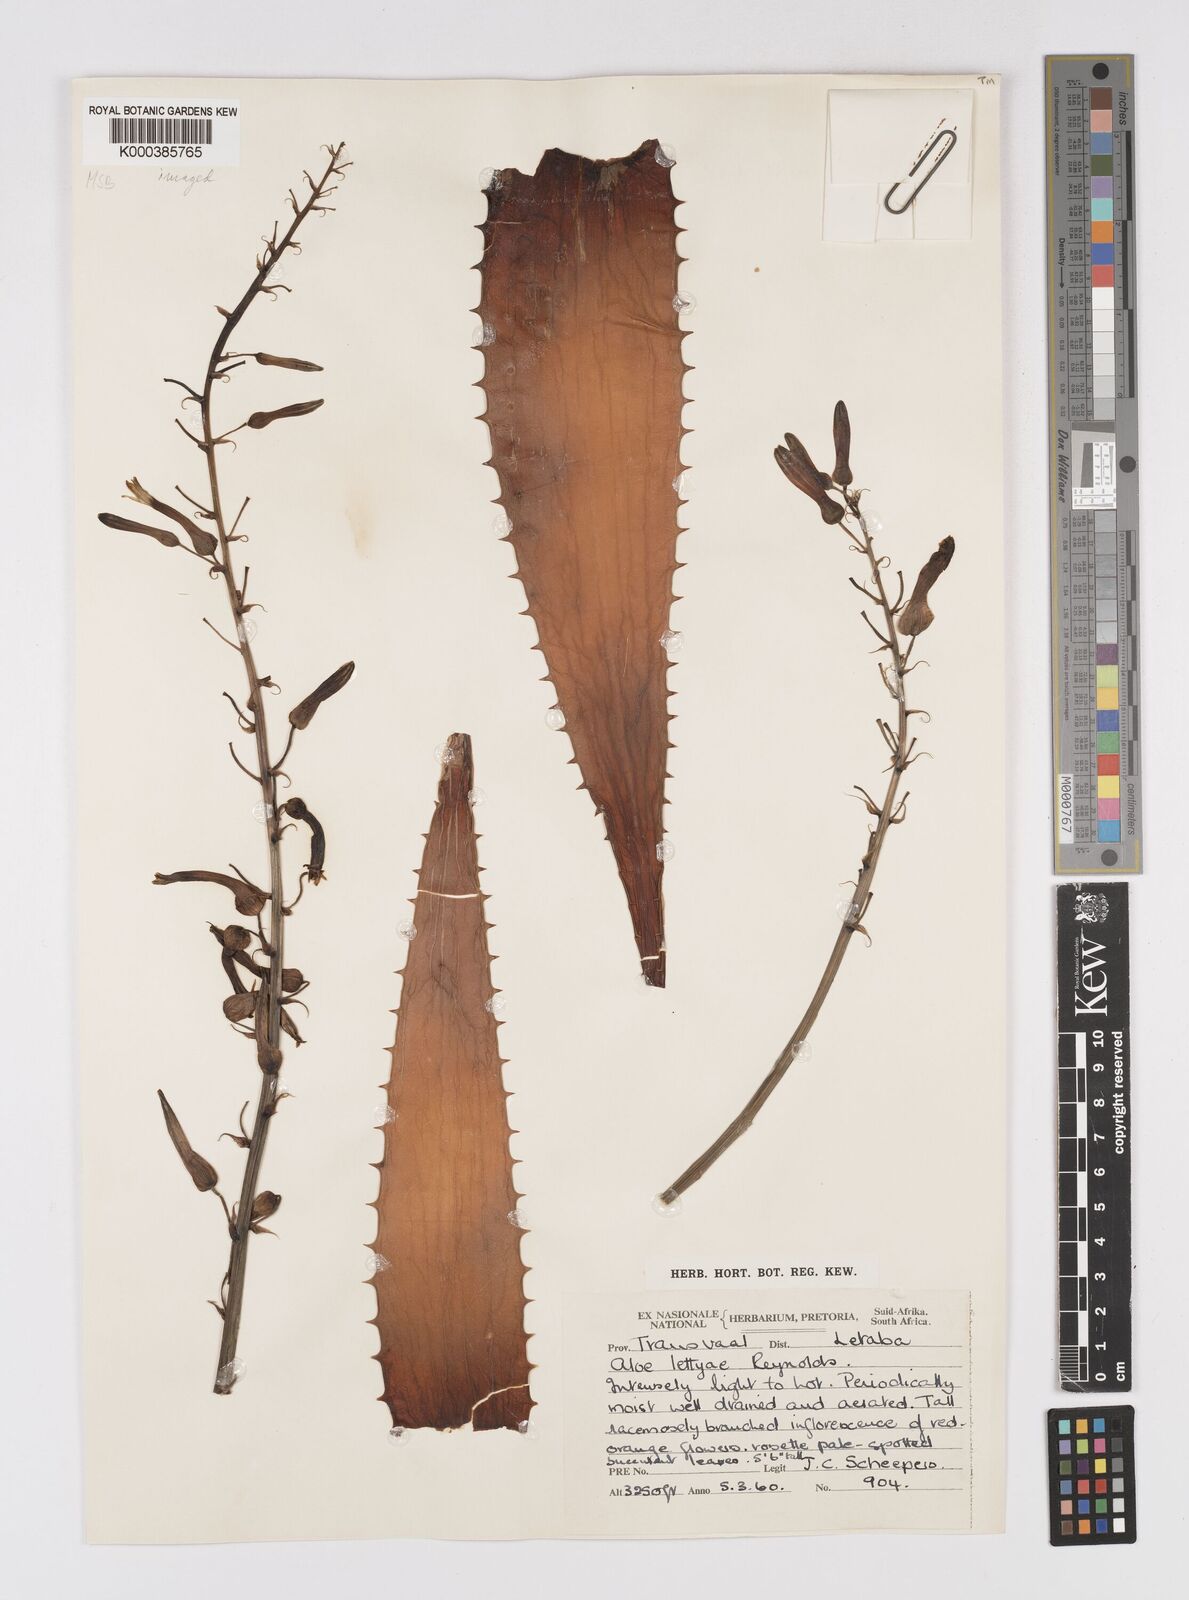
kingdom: Plantae
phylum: Tracheophyta
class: Liliopsida
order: Asparagales
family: Asphodelaceae
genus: Aloe
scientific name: Aloe
